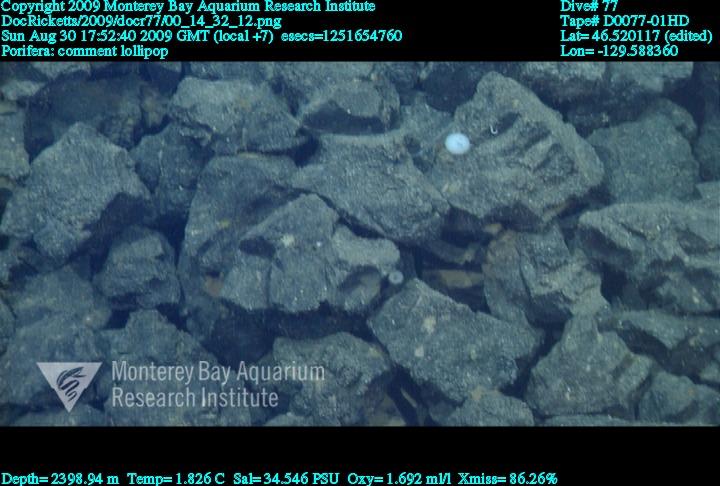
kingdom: Animalia
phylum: Porifera
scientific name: Porifera
